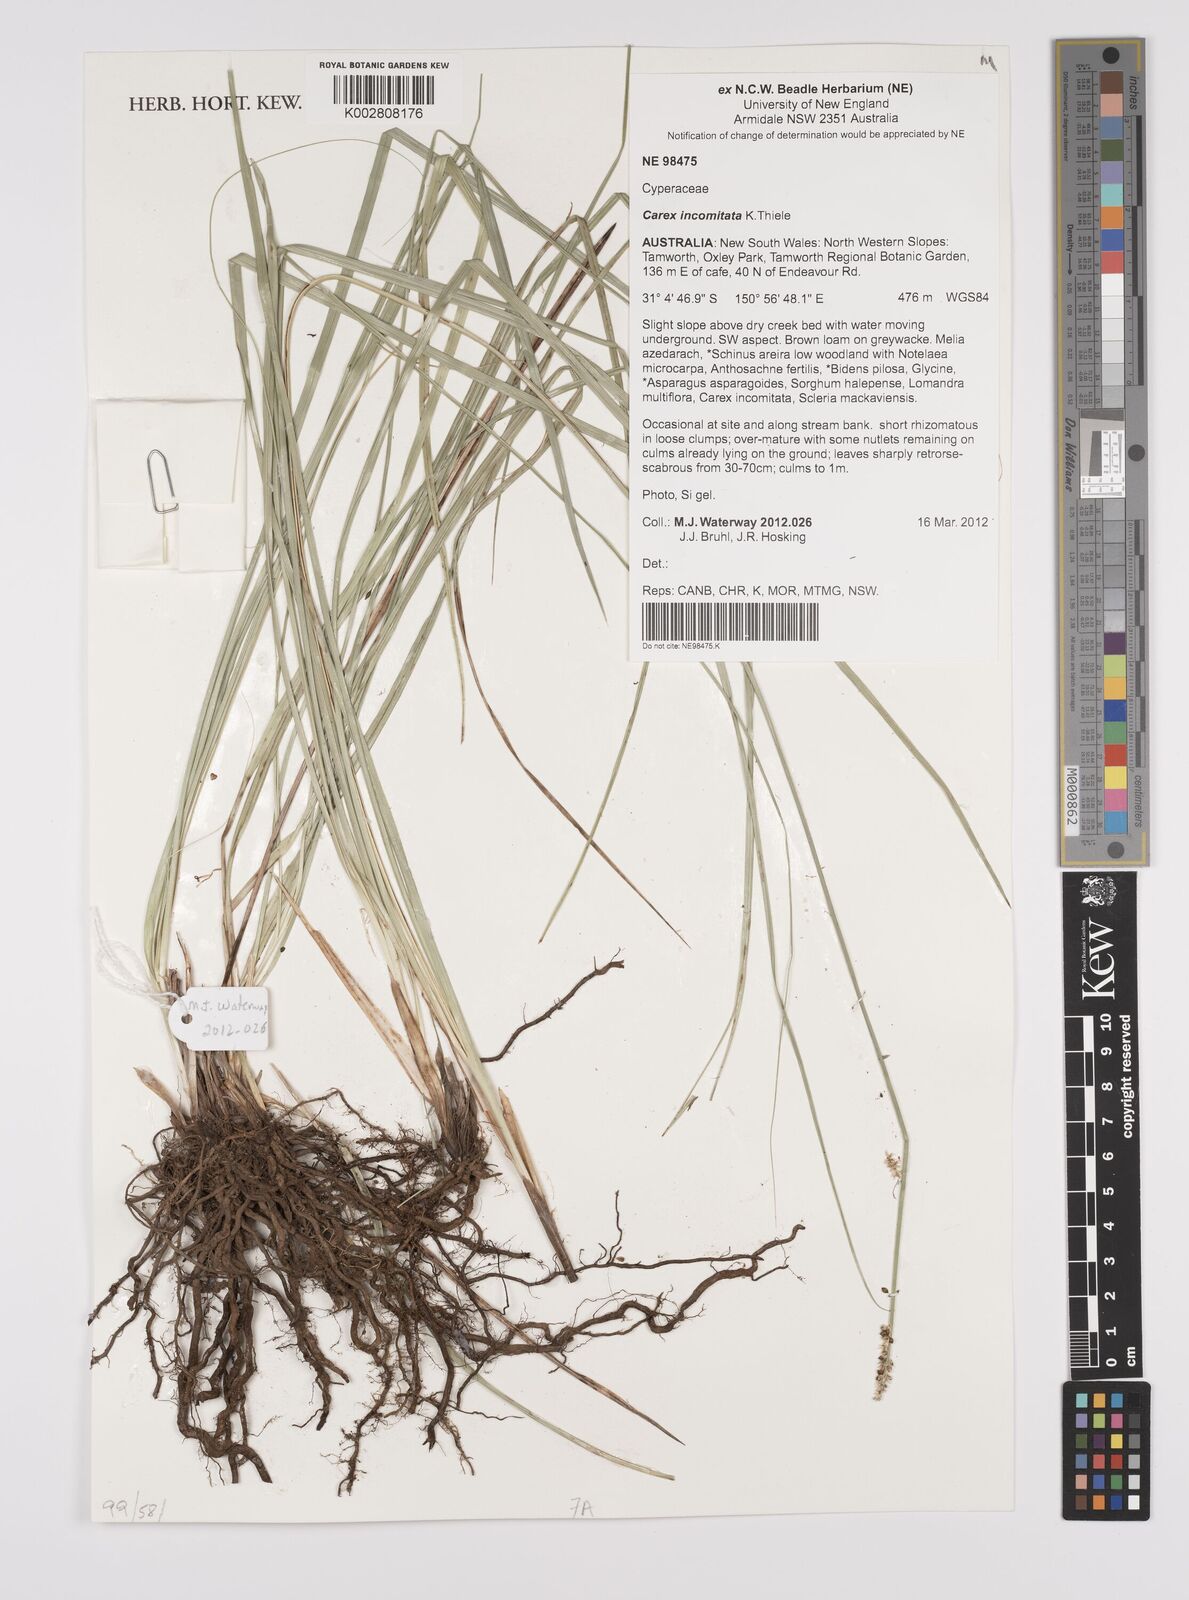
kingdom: Plantae
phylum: Tracheophyta
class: Liliopsida
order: Poales
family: Cyperaceae
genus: Carex
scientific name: Carex incomitata
